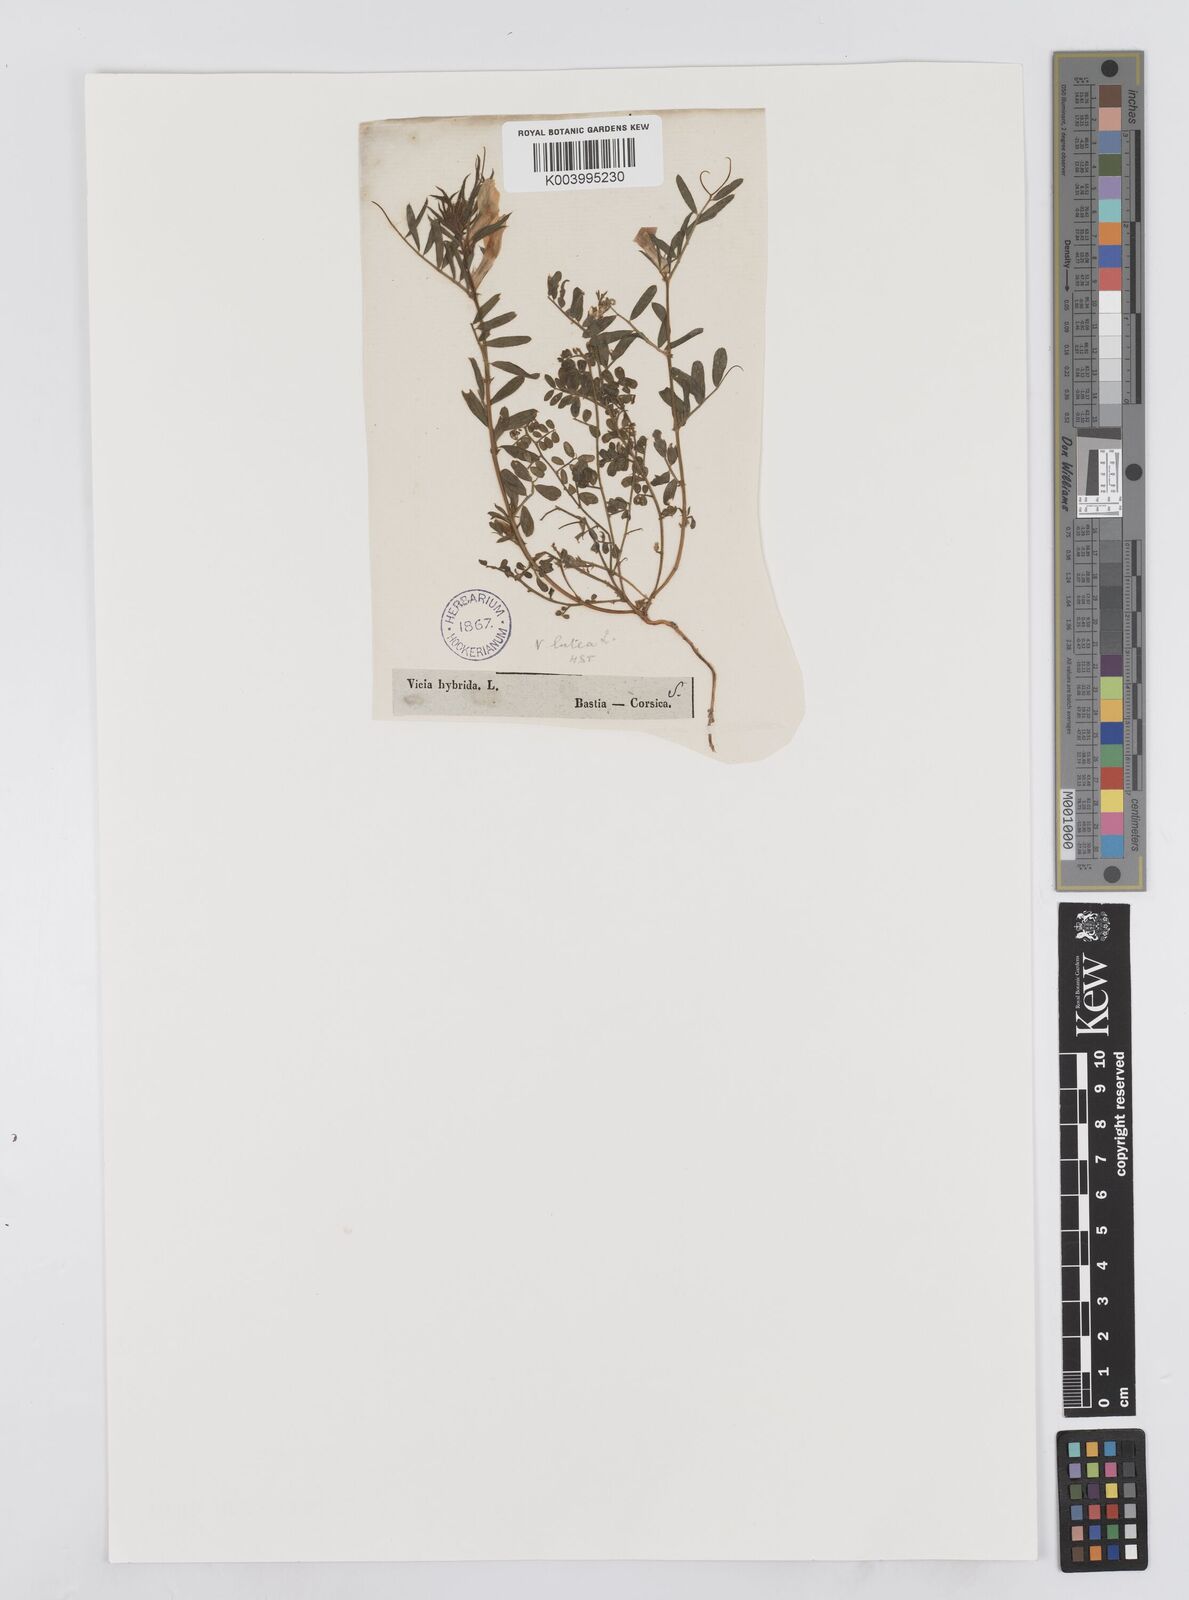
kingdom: Plantae
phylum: Tracheophyta
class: Magnoliopsida
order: Fabales
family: Fabaceae
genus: Vicia
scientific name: Vicia lutea
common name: Smooth yellow vetch
